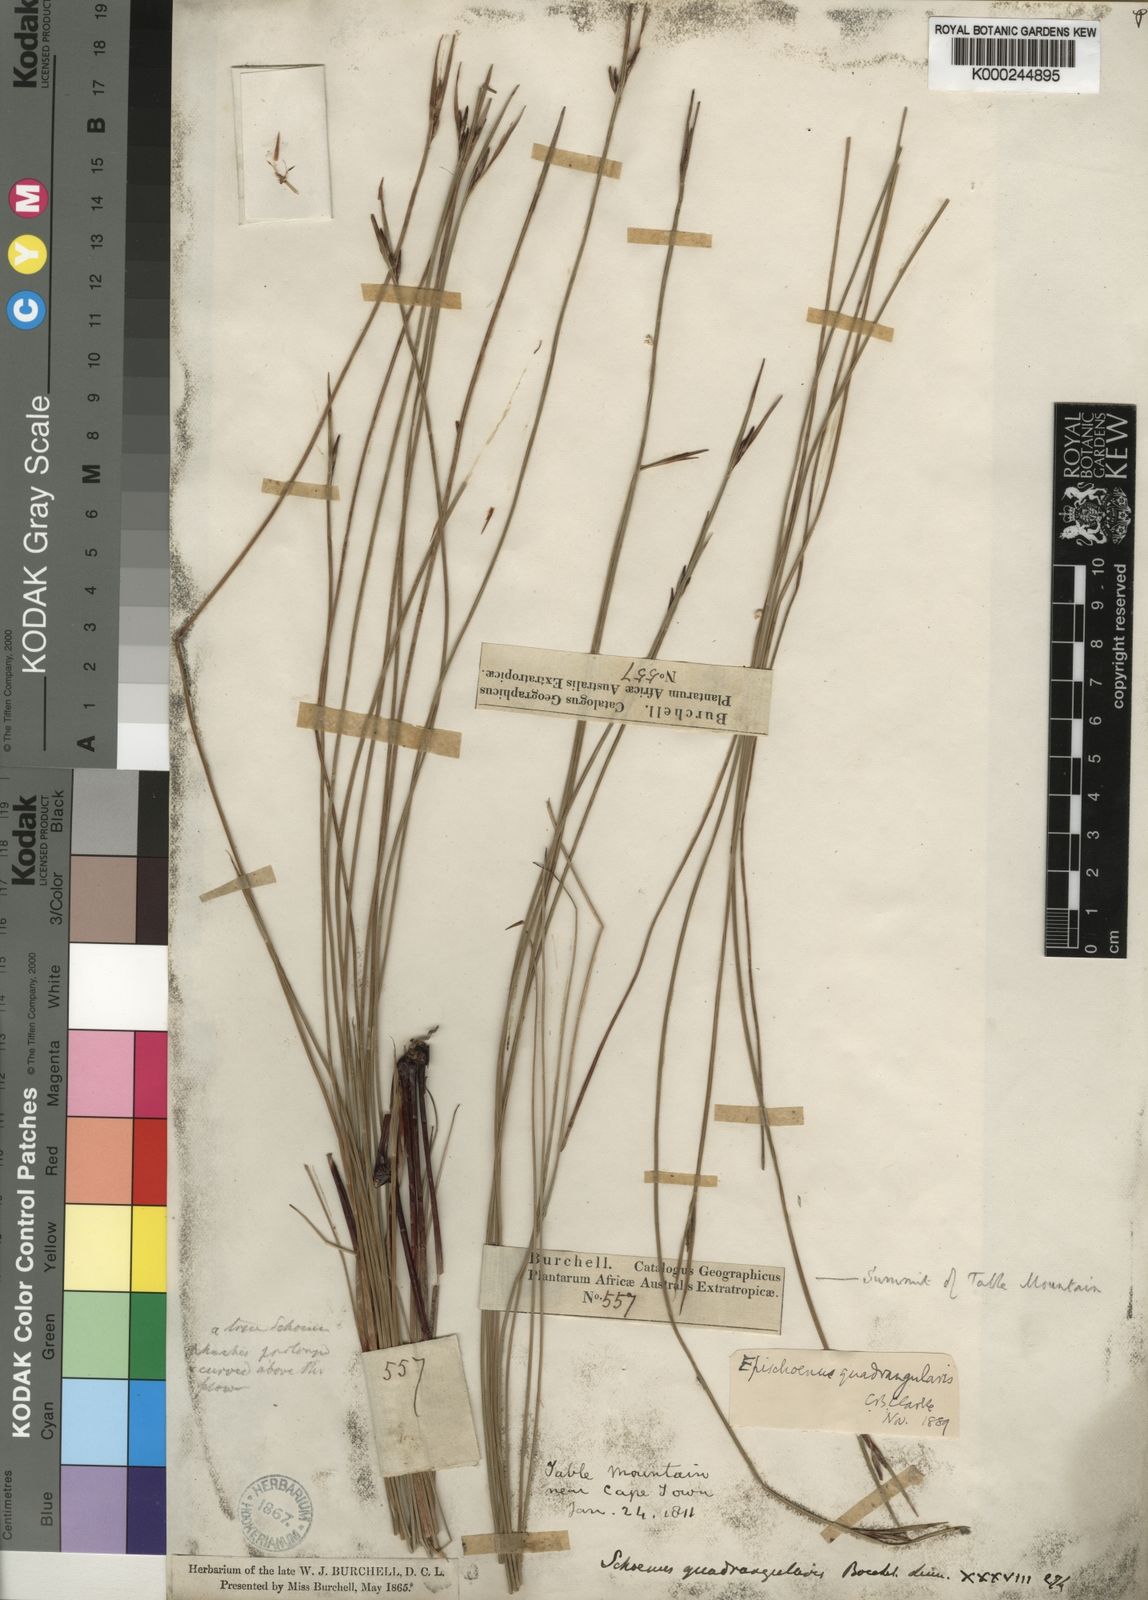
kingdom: Plantae
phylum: Tracheophyta
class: Liliopsida
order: Poales
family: Cyperaceae
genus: Schoenus
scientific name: Schoenus quadrangularis
